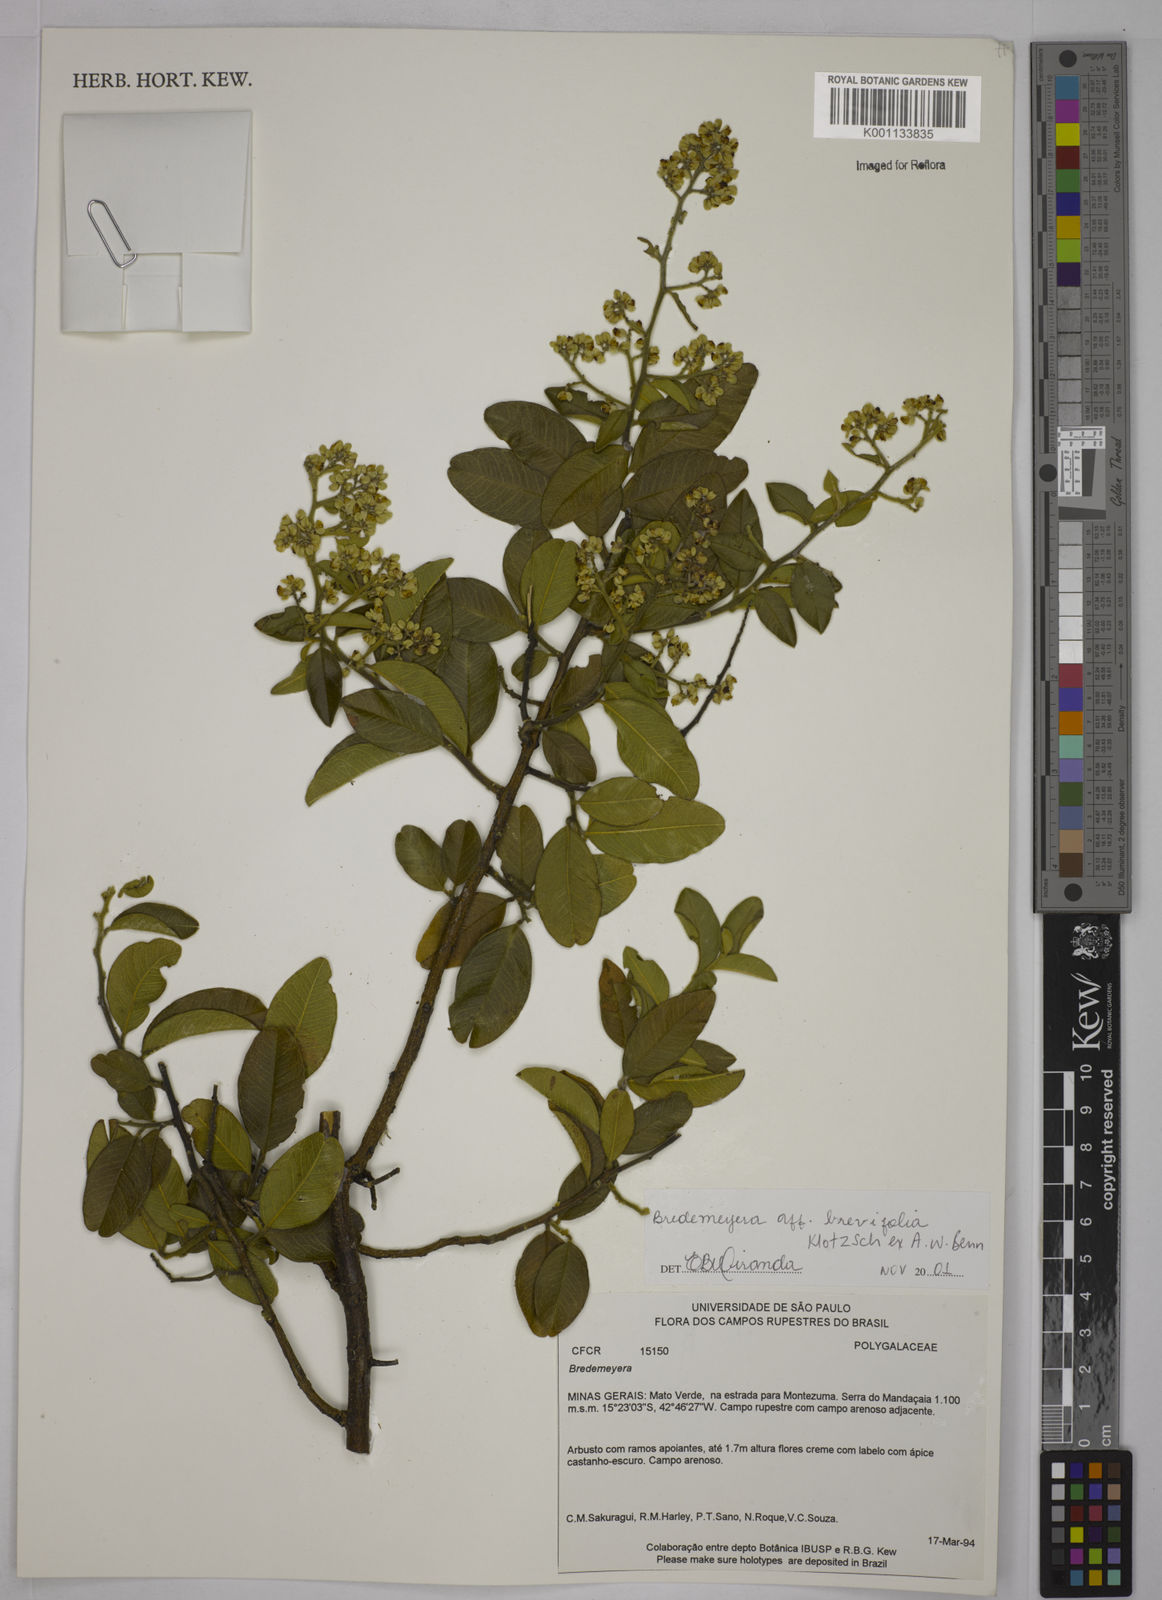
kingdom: Plantae
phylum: Tracheophyta
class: Magnoliopsida
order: Fabales
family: Polygalaceae
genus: Bredemeyera
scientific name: Bredemeyera brevifolia
